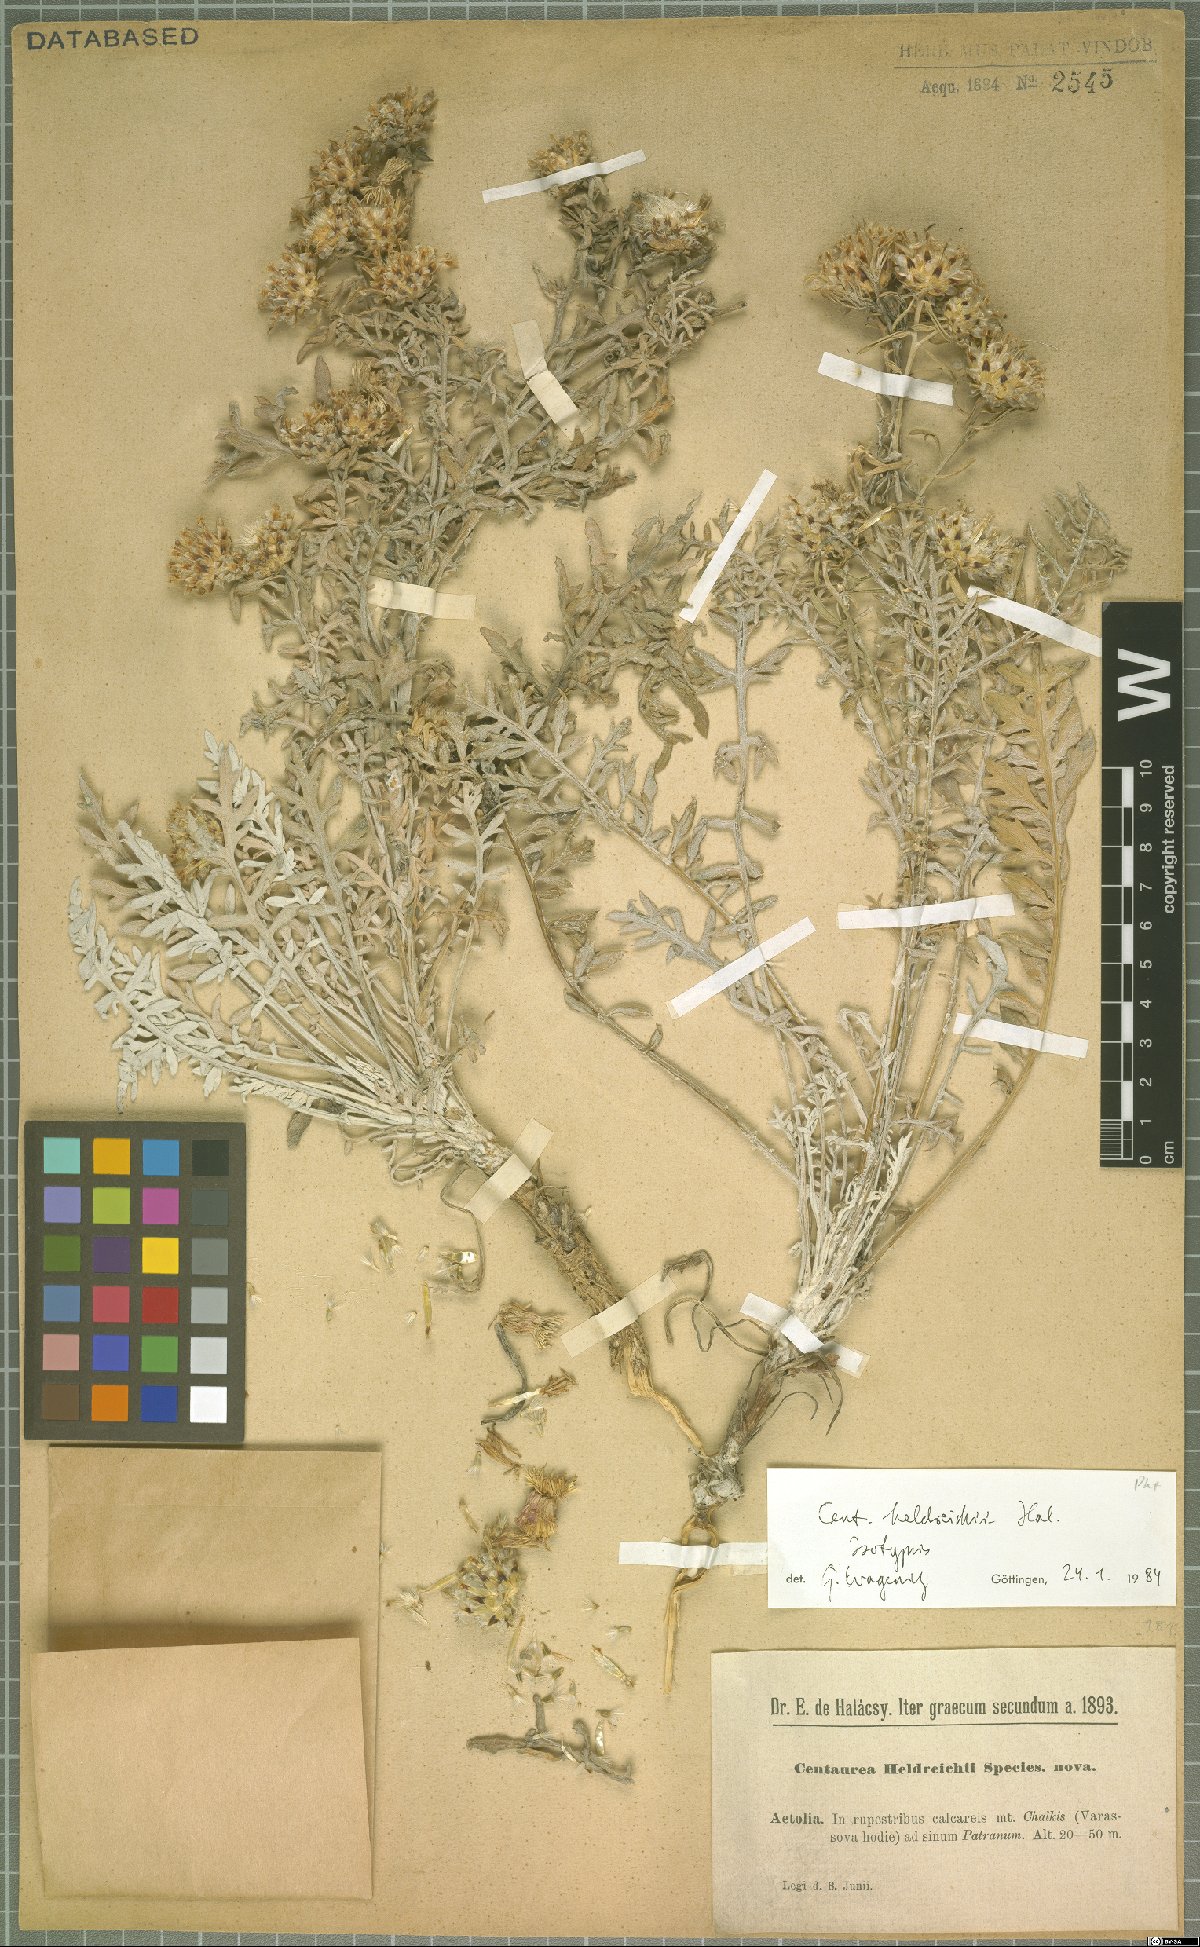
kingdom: Plantae
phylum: Tracheophyta
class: Magnoliopsida
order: Asterales
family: Asteraceae
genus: Centaurea
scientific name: Centaurea heldreichii
